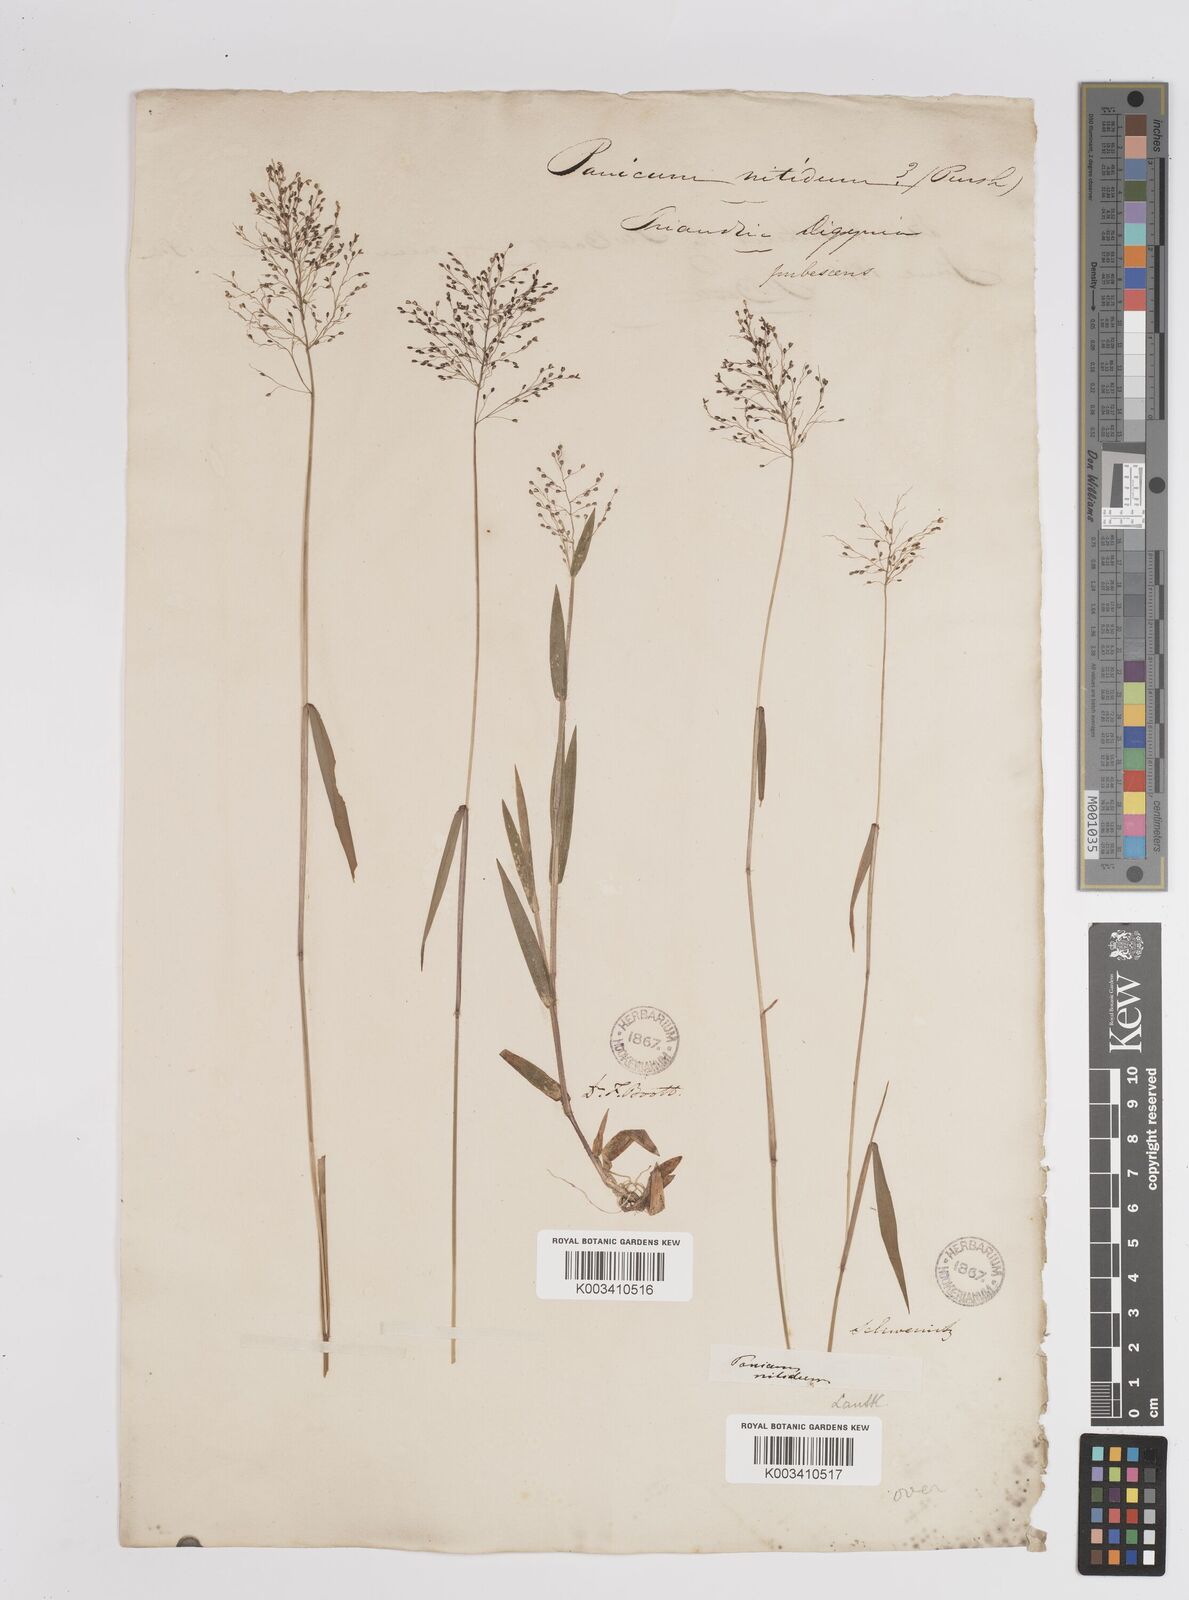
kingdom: Plantae
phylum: Tracheophyta
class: Liliopsida
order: Poales
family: Poaceae
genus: Dichanthelium
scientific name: Dichanthelium polyanthes
